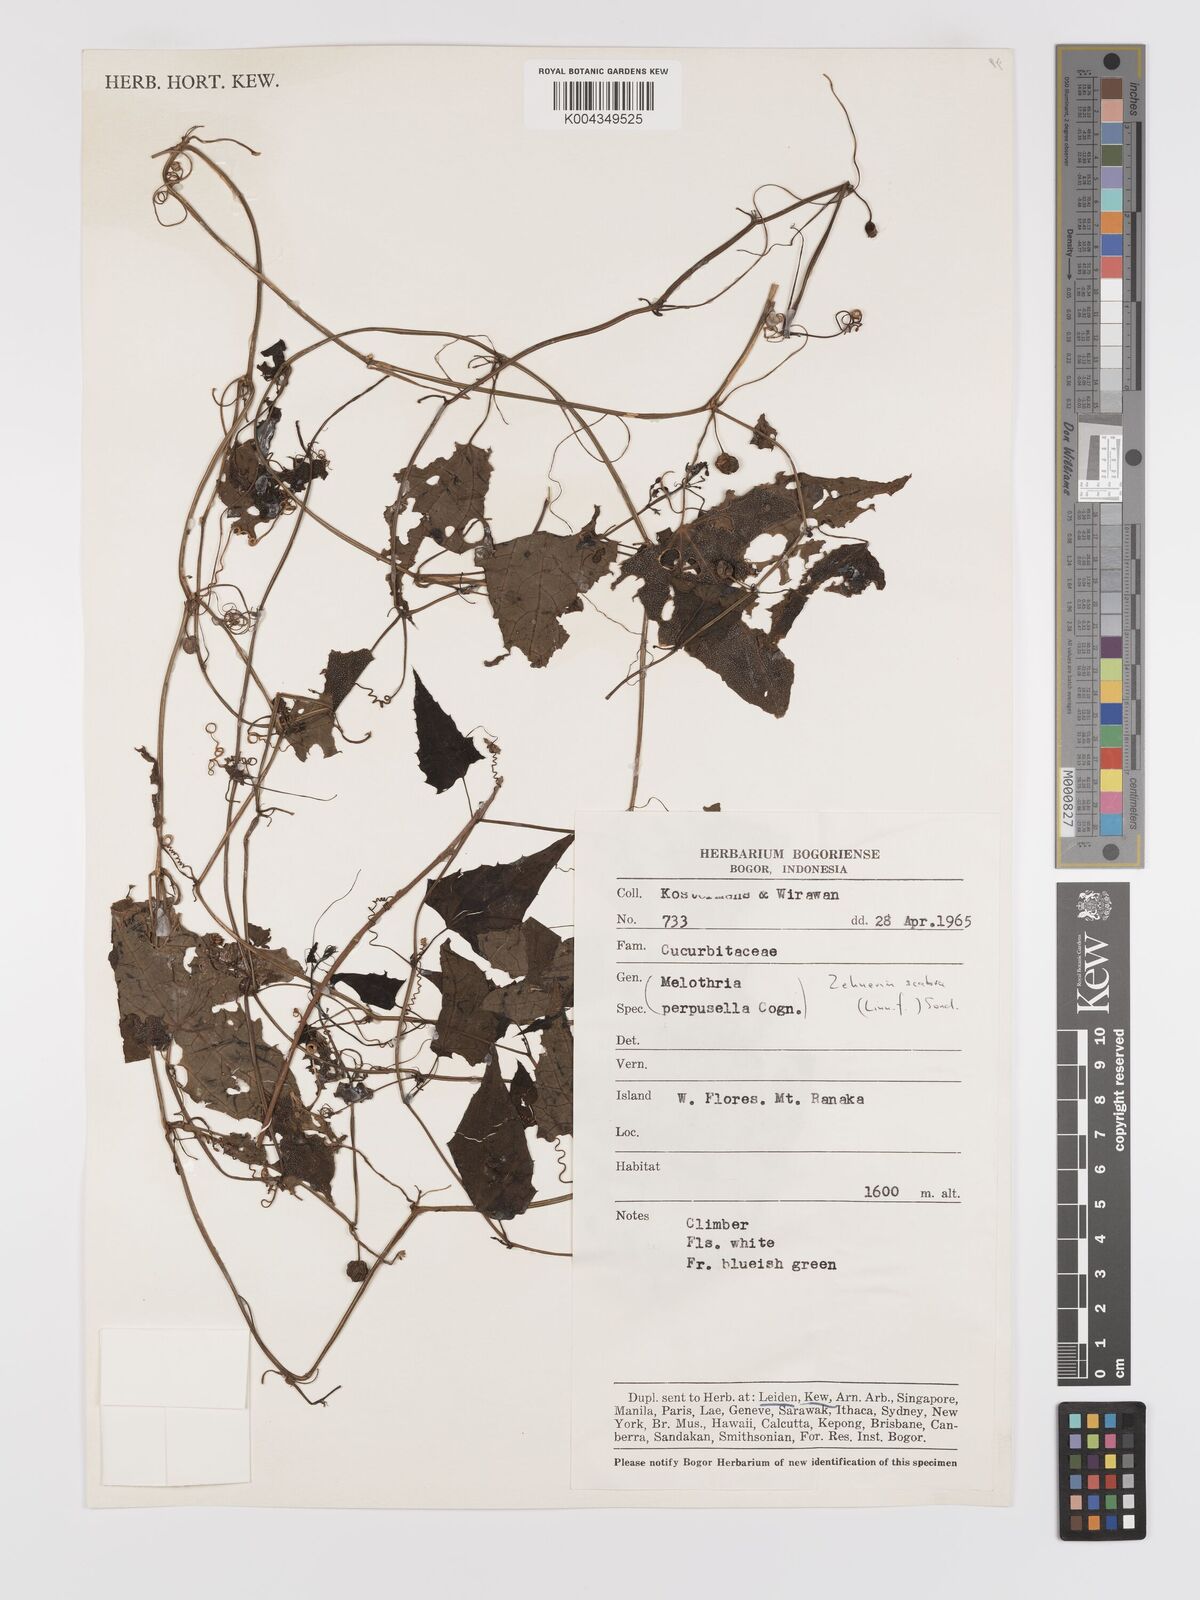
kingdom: Plantae
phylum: Tracheophyta
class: Magnoliopsida
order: Cucurbitales
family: Cucurbitaceae
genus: Zehneria
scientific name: Zehneria scabra
